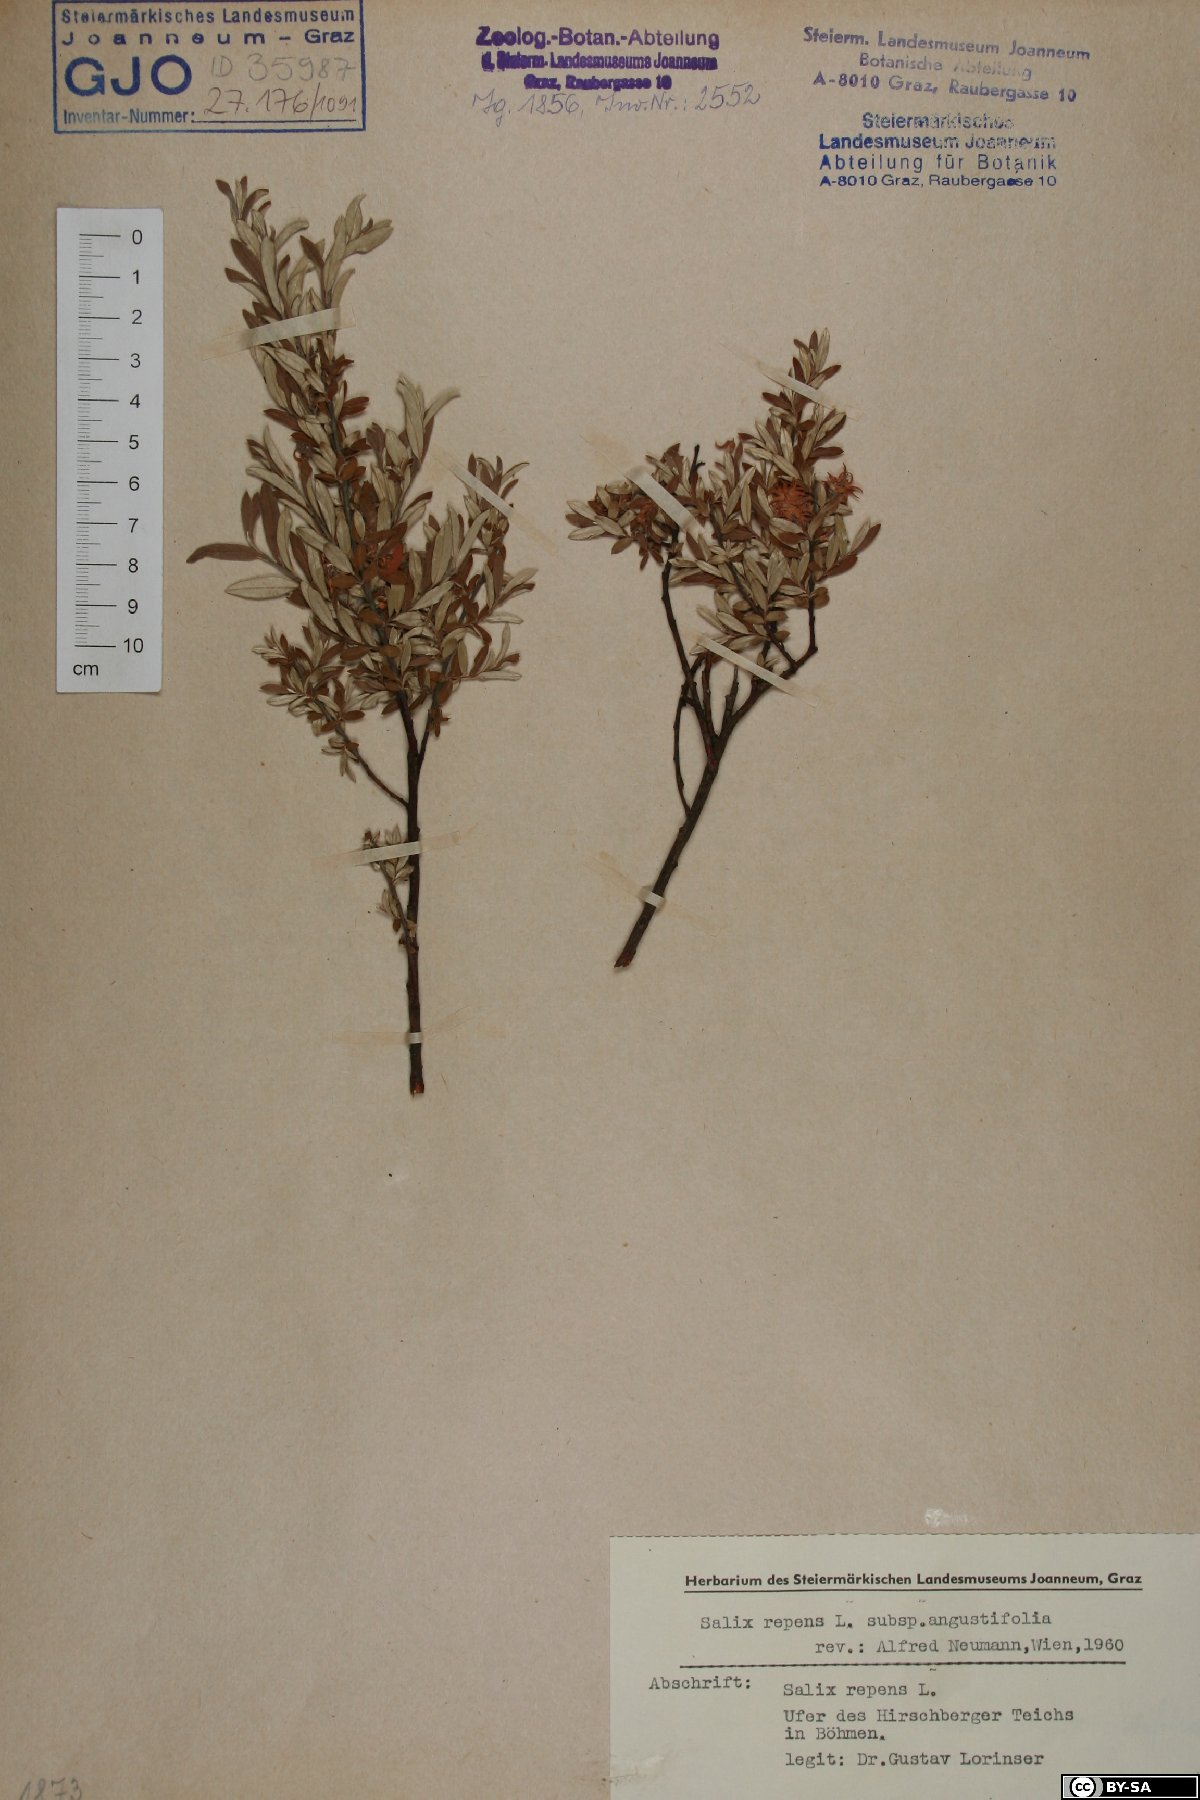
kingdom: Plantae
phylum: Tracheophyta
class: Magnoliopsida
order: Malpighiales
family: Salicaceae
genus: Salix
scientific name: Salix rosmarinifolia
